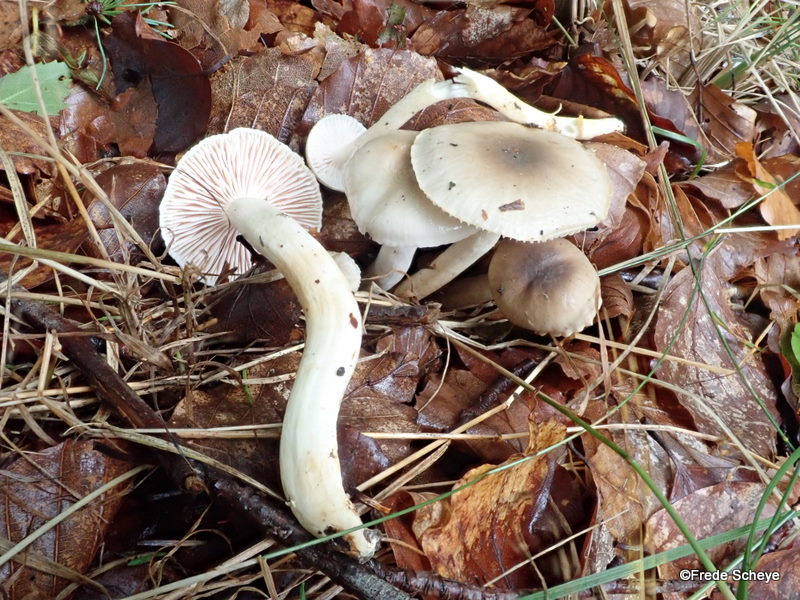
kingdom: Fungi
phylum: Basidiomycota
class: Agaricomycetes
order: Agaricales
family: Hygrophoraceae
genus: Hygrophorus
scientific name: Hygrophorus mesotephrus
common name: askegrå sneglehat
